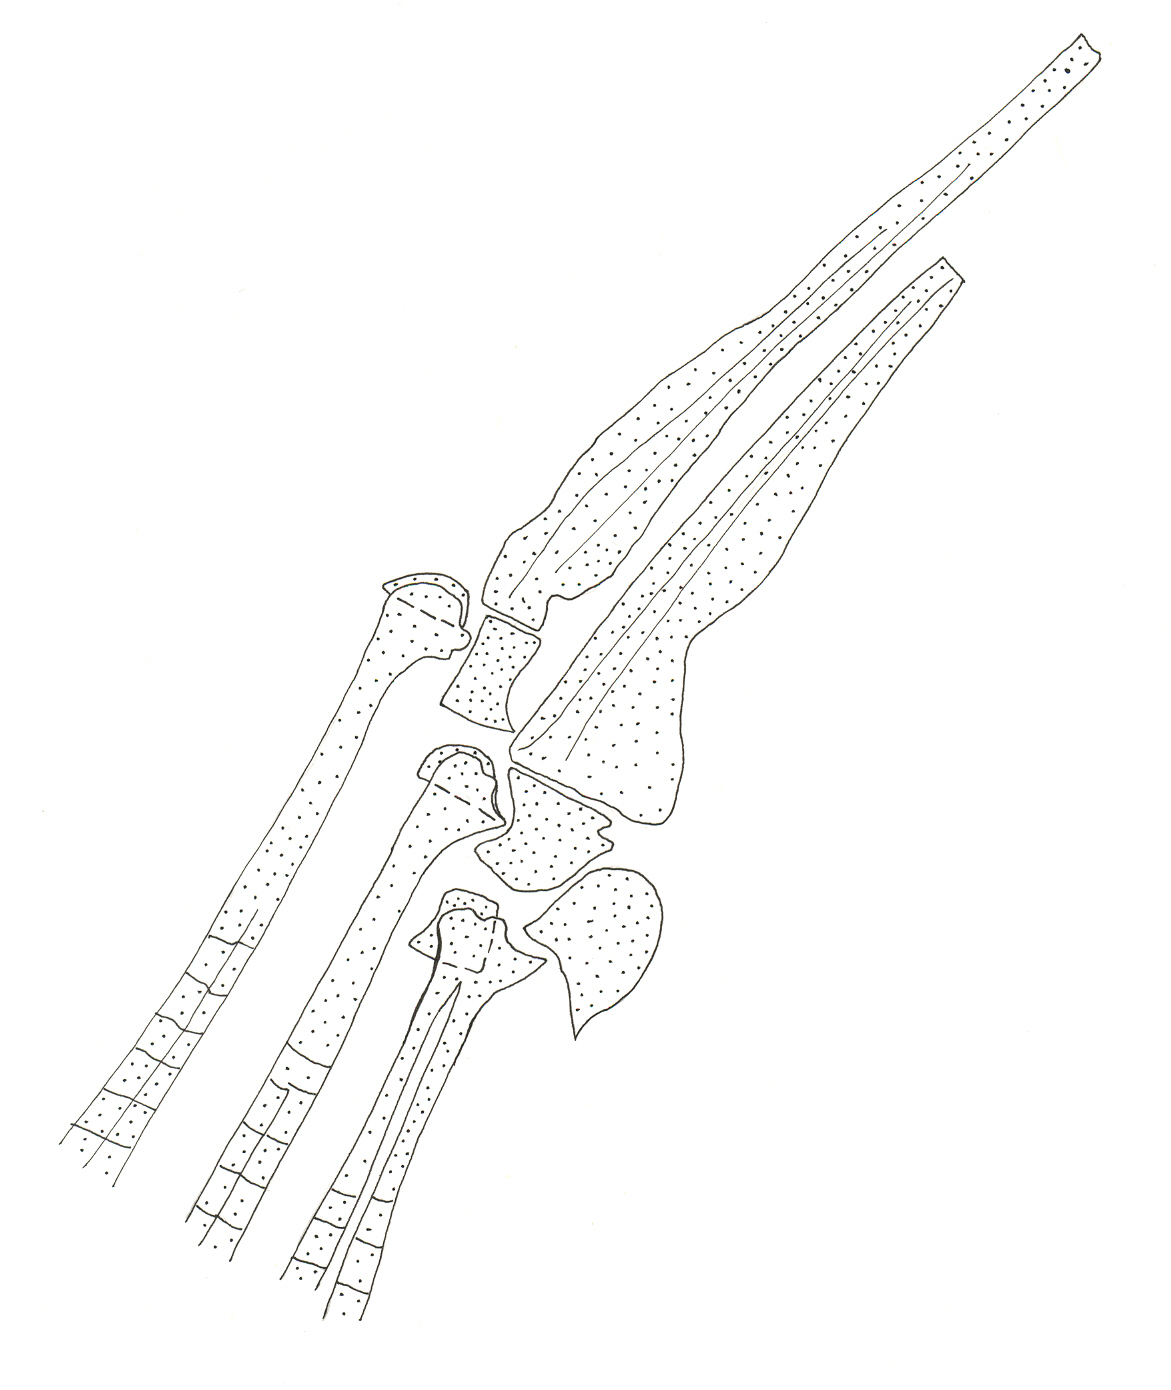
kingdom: Animalia
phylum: Chordata
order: Perciformes
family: Dinopercidae
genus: Dinoperca
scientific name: Dinoperca petersi
